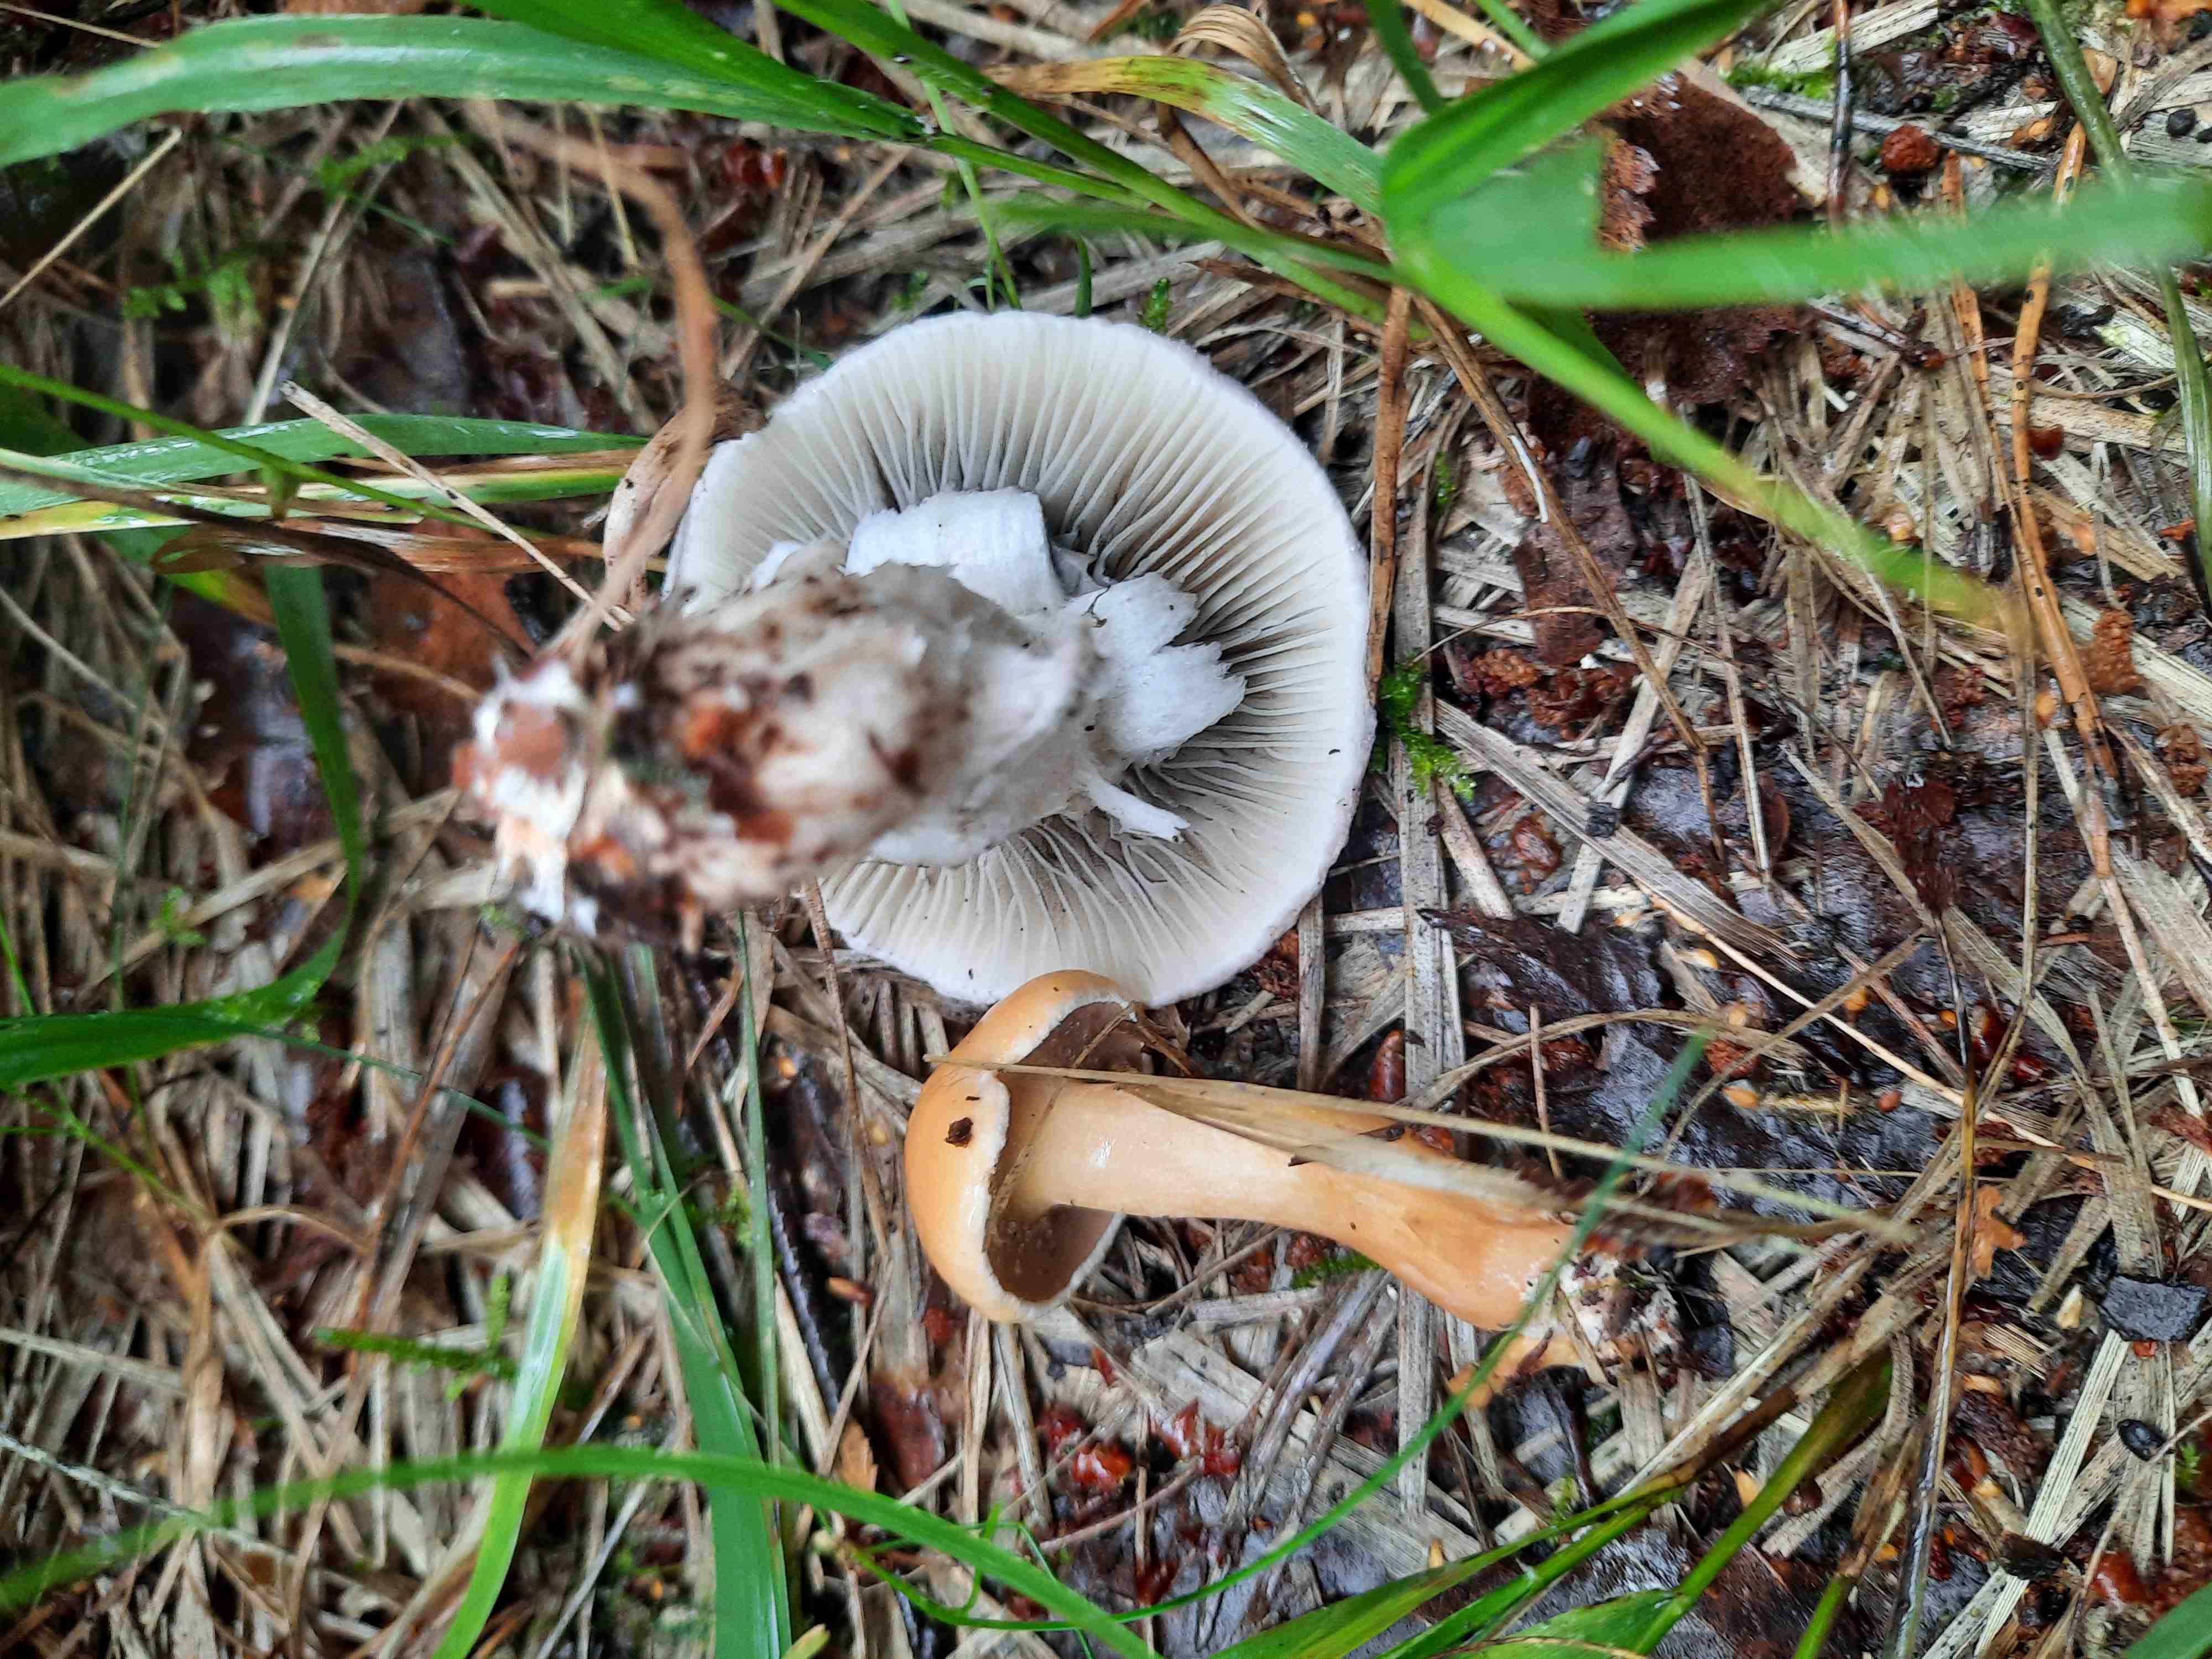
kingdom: Fungi
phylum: Basidiomycota
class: Agaricomycetes
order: Boletales
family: Gomphidiaceae
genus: Gomphidius
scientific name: Gomphidius roseus
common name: rosenrød slimslør
